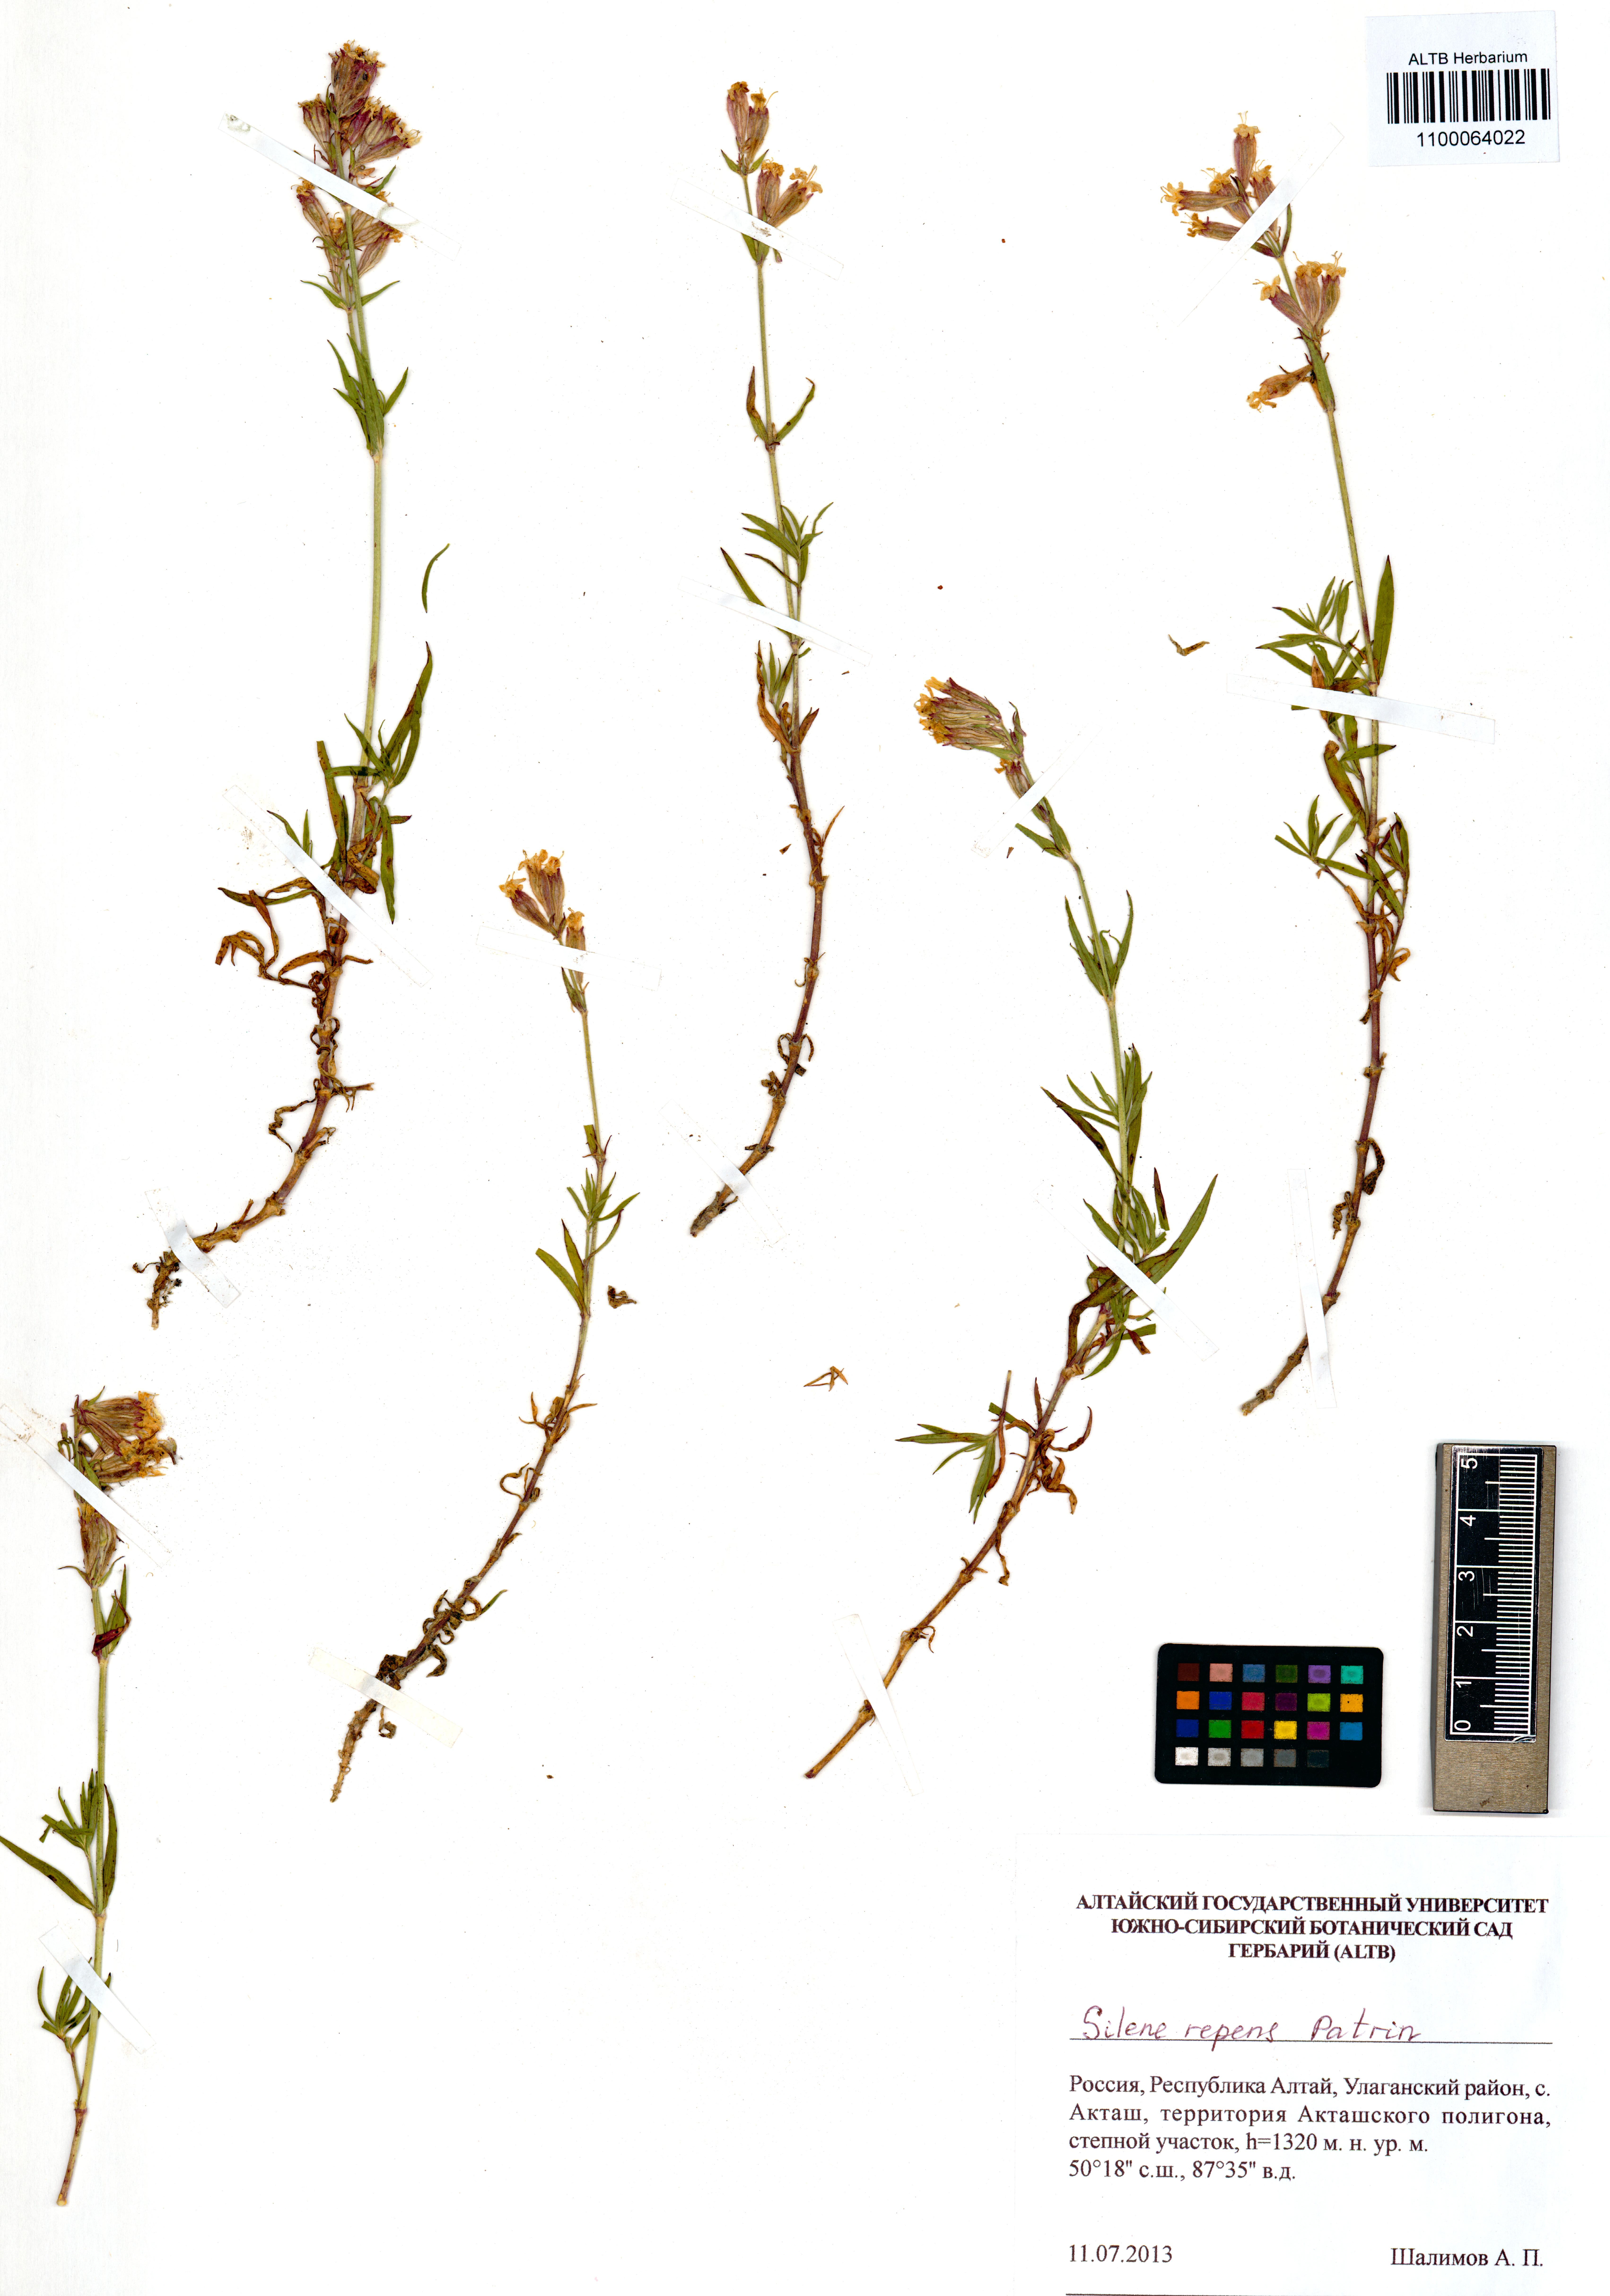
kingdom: Plantae
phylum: Tracheophyta
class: Magnoliopsida
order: Caryophyllales
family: Caryophyllaceae
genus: Silene
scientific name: Silene repens
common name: Pink campion
